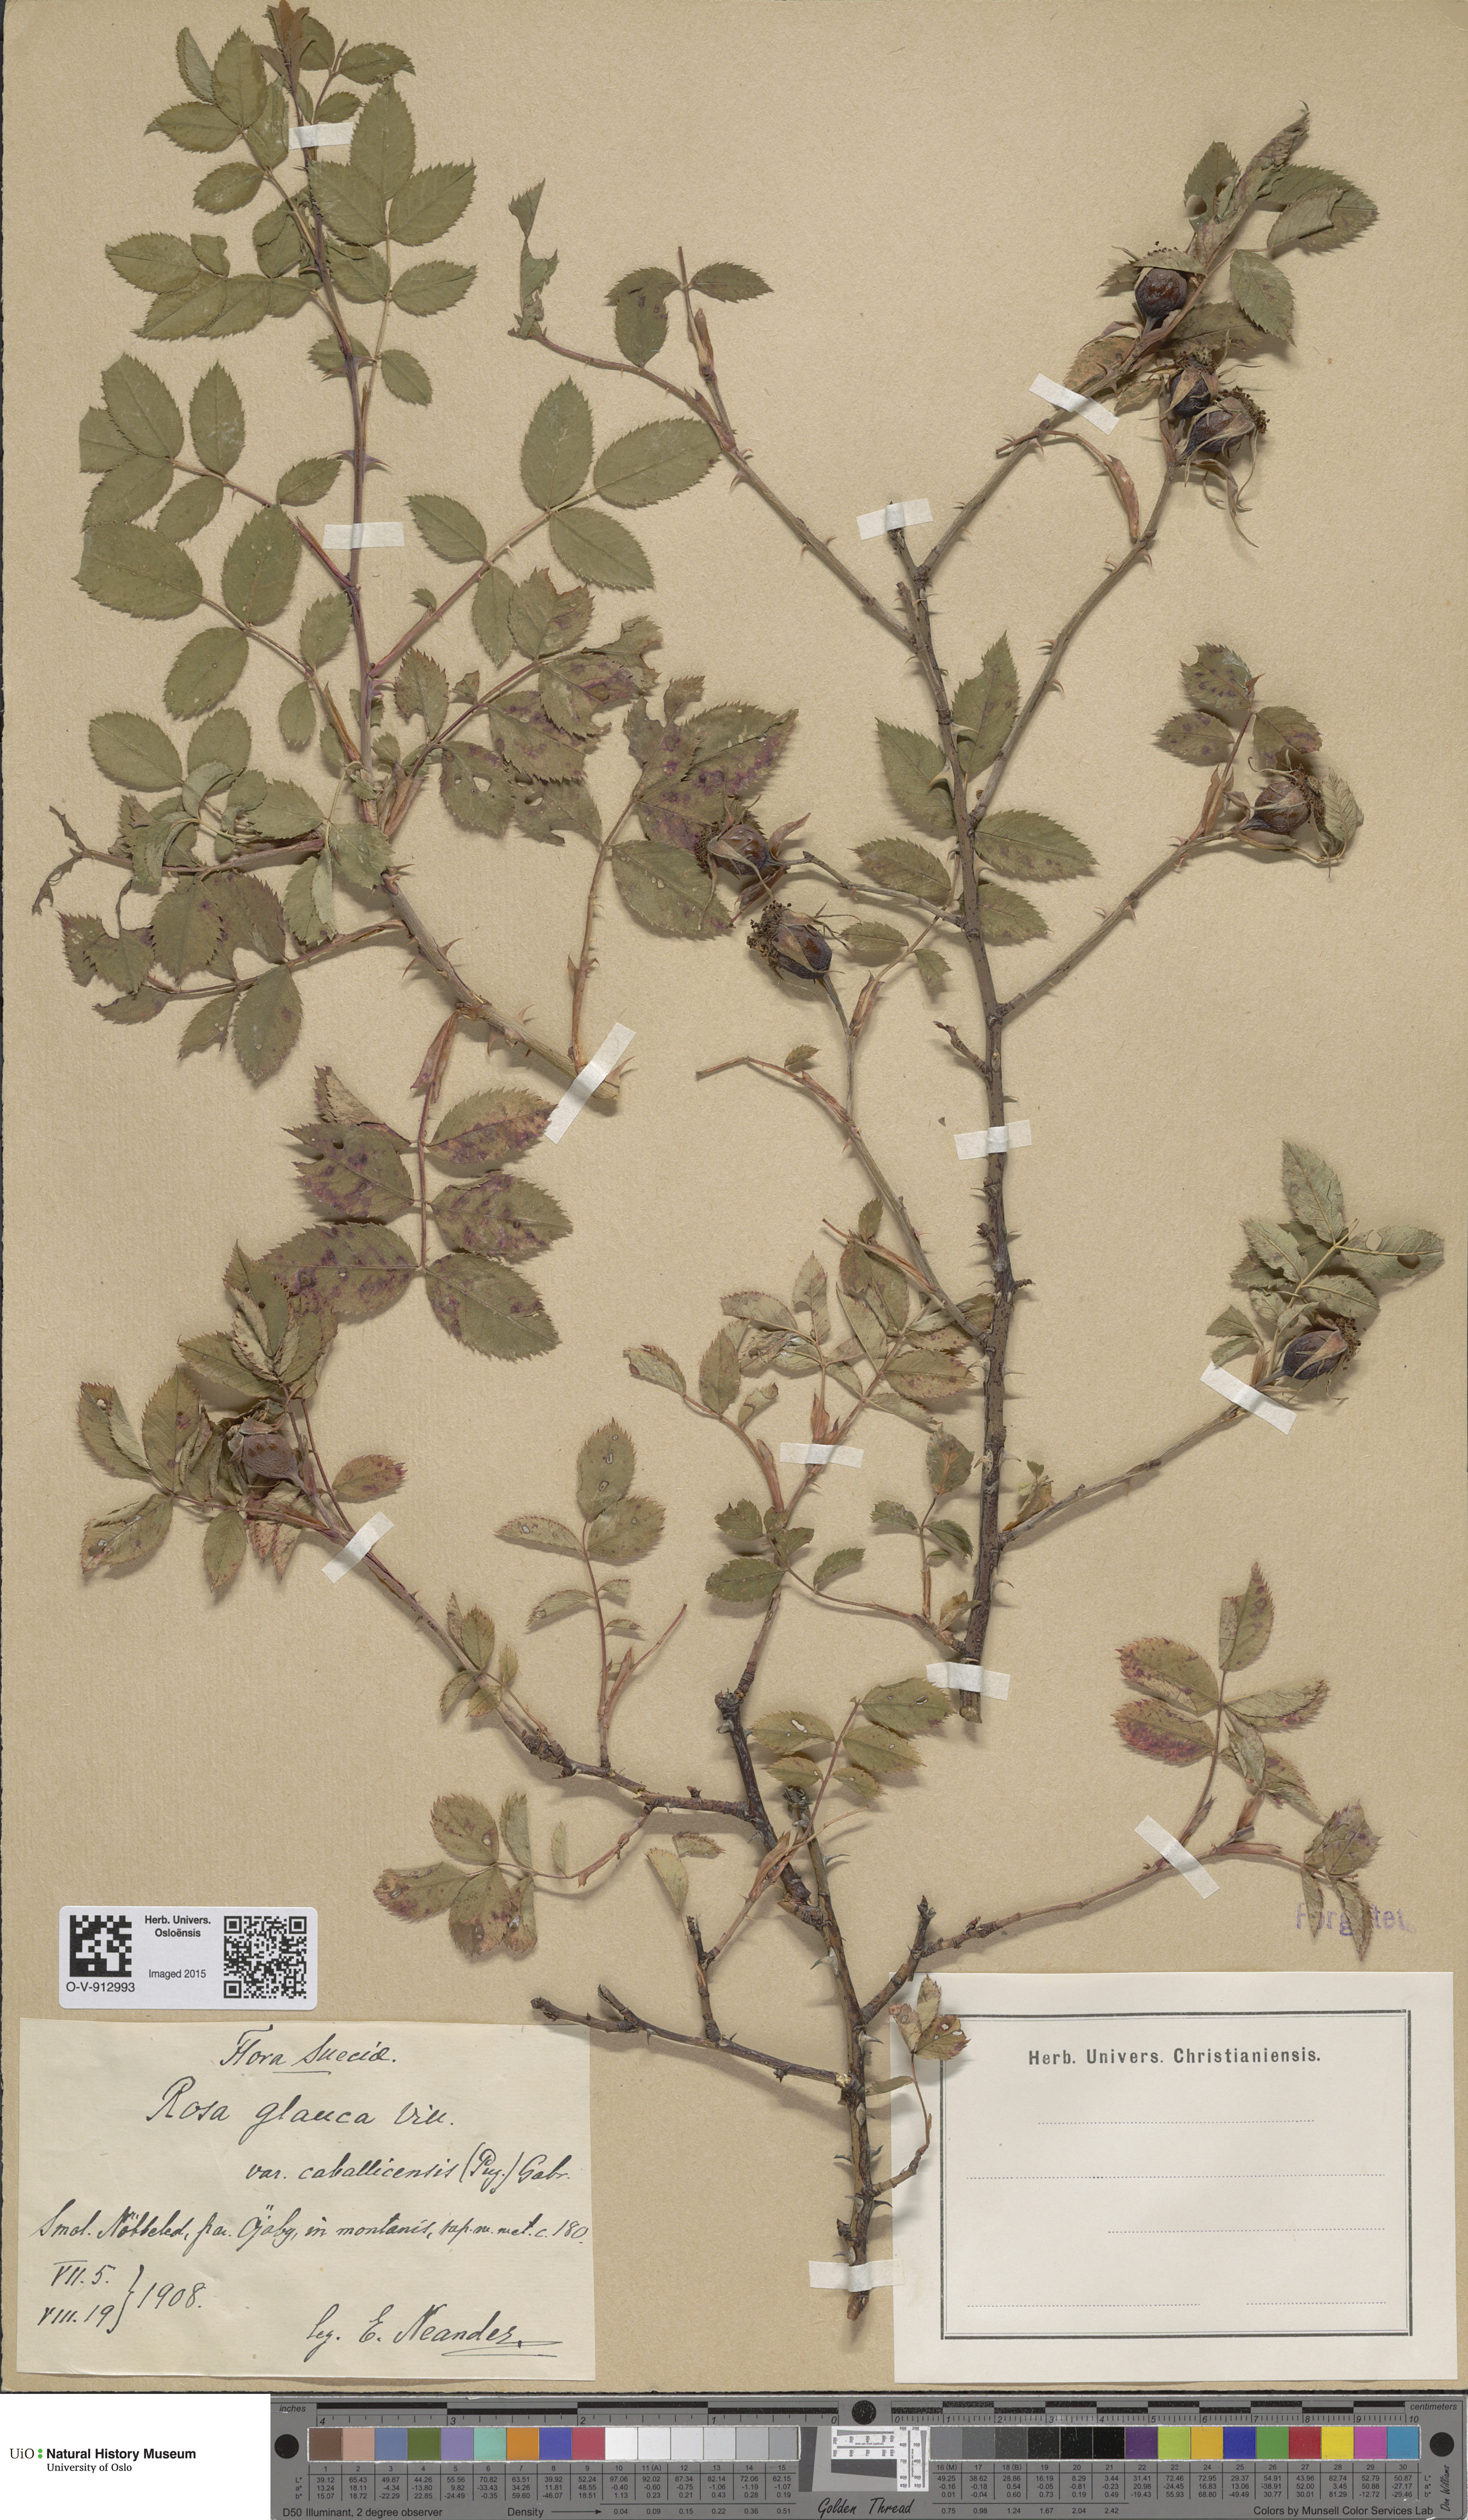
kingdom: Plantae
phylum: Tracheophyta
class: Magnoliopsida
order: Rosales
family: Rosaceae
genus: Rosa
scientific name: Rosa glauca
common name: Redleaf rose
